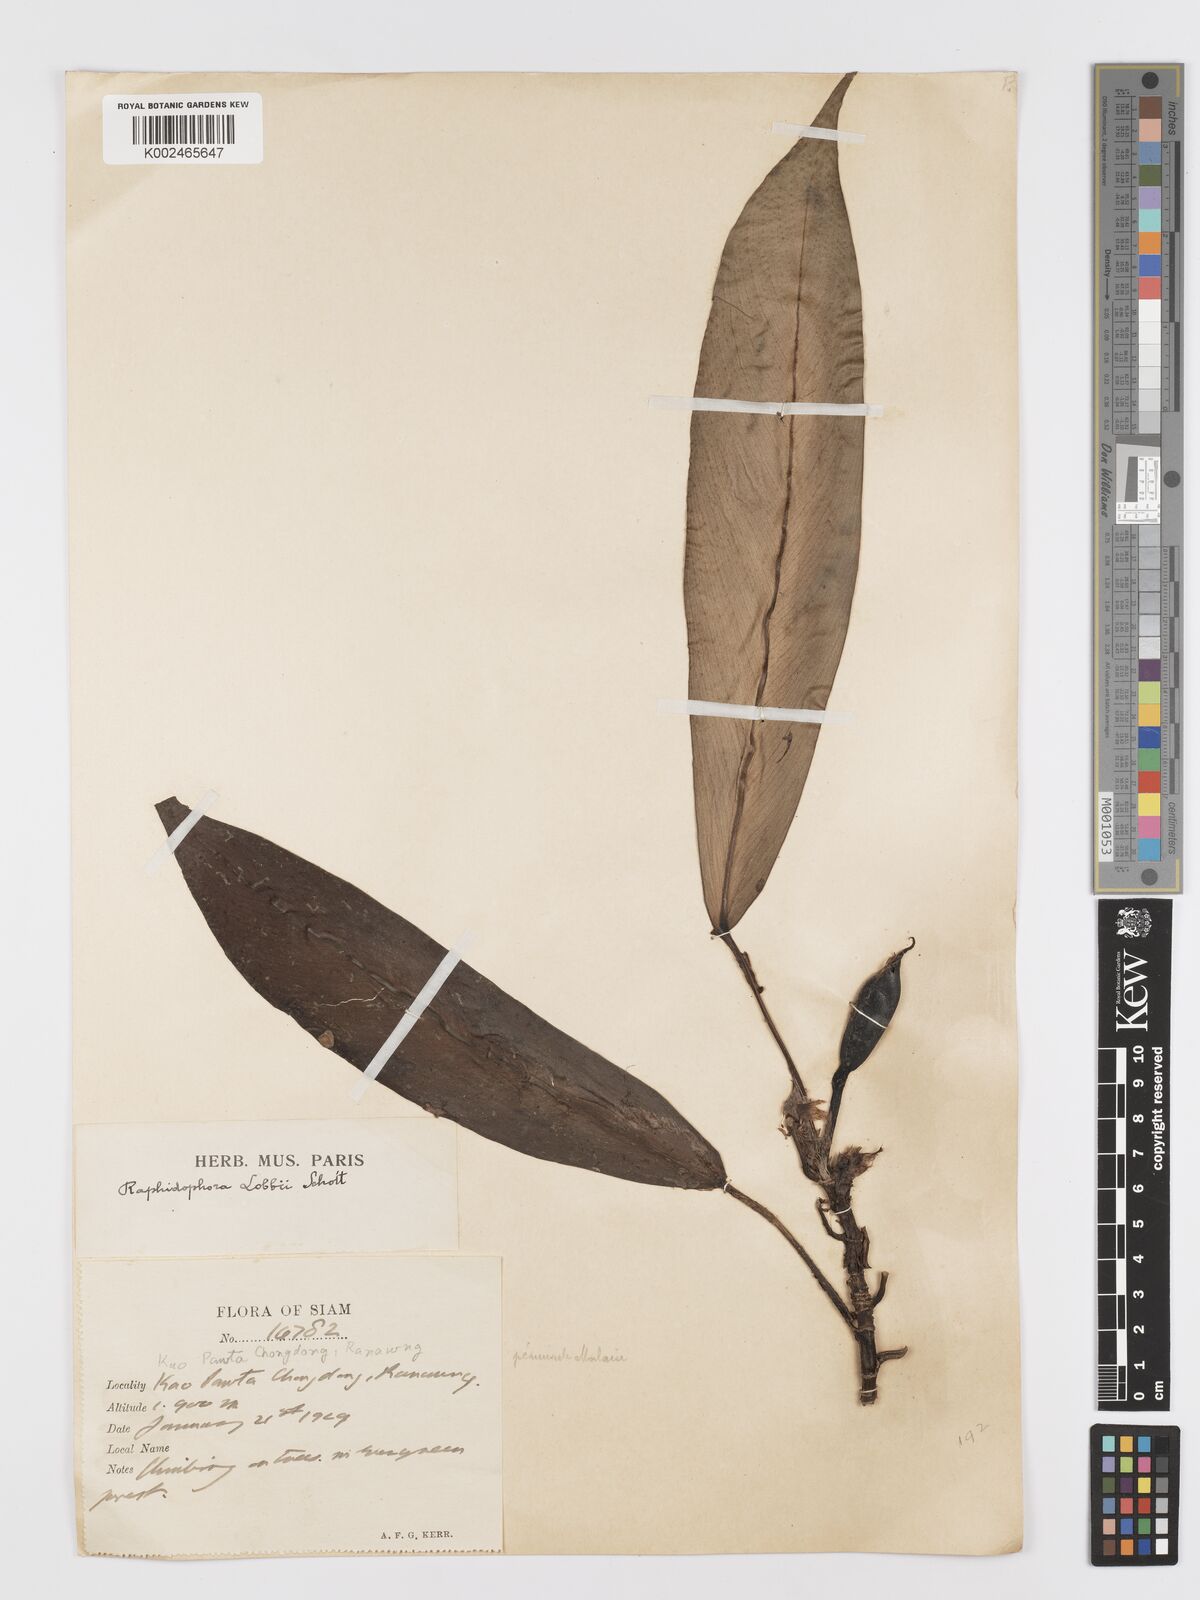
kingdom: Plantae
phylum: Tracheophyta
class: Liliopsida
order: Alismatales
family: Araceae
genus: Rhaphidophora
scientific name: Rhaphidophora sylvestris
